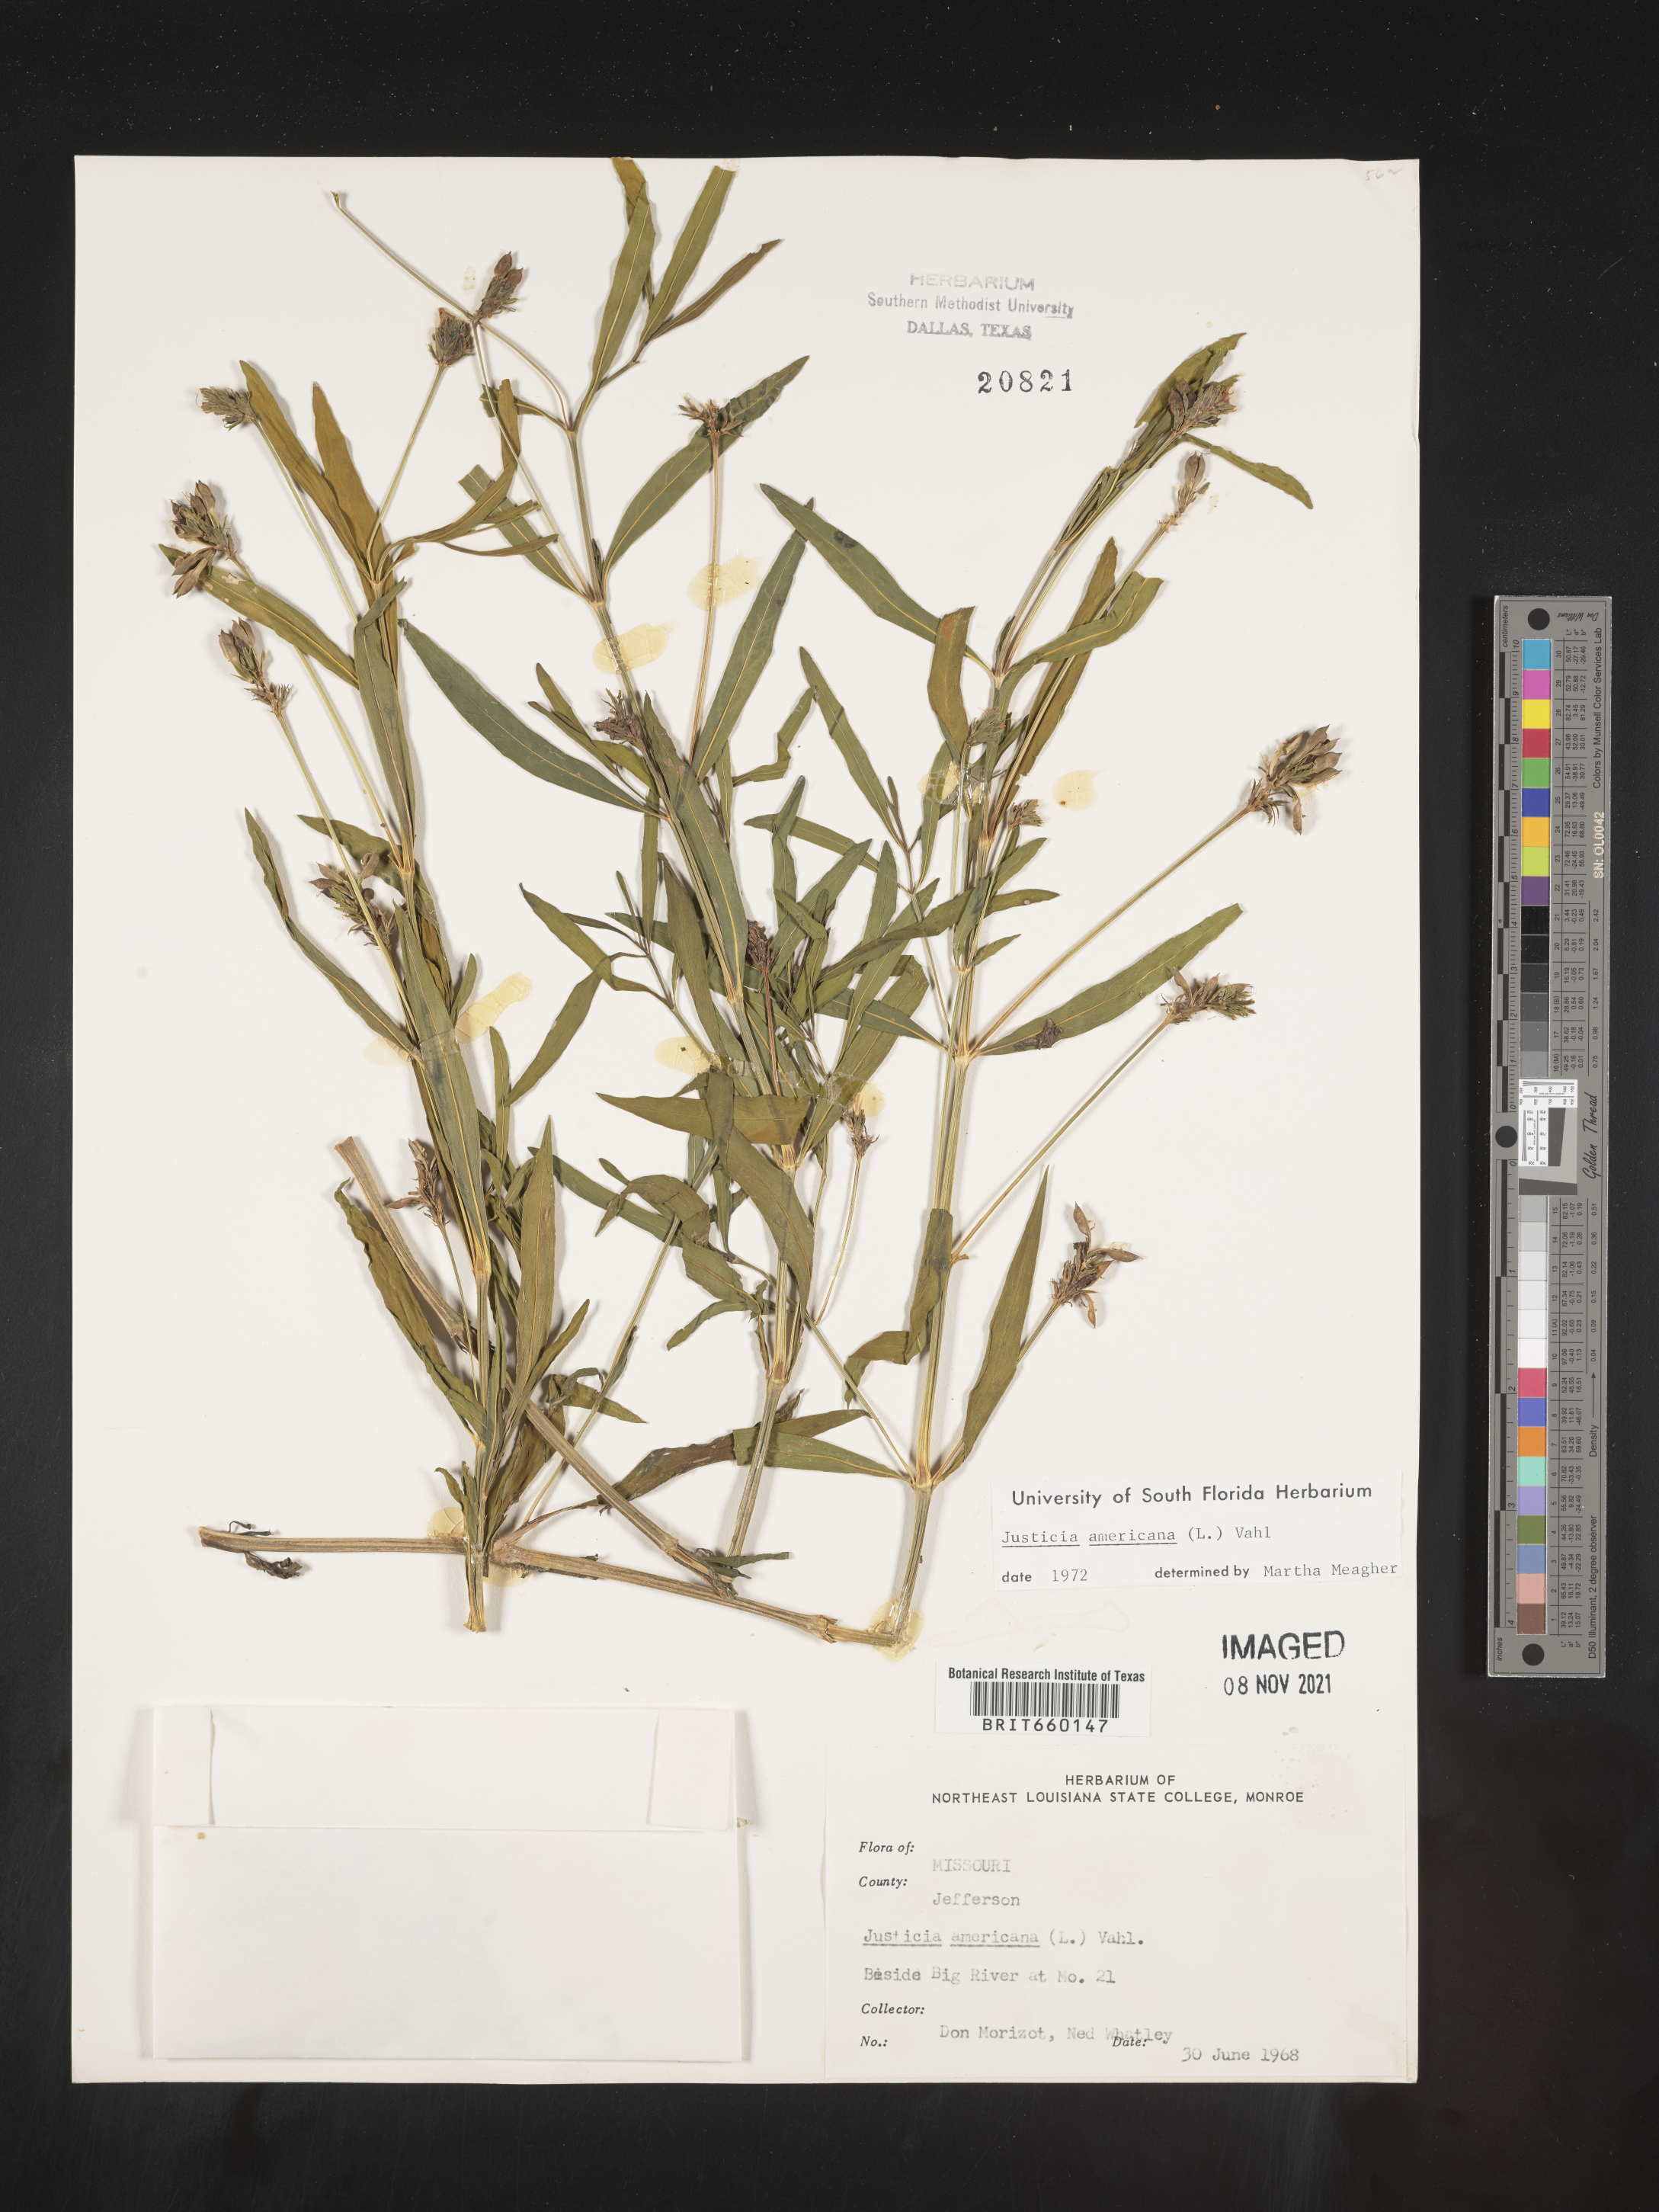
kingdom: Plantae
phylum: Tracheophyta
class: Magnoliopsida
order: Lamiales
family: Acanthaceae
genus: Dianthera
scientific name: Dianthera americana
